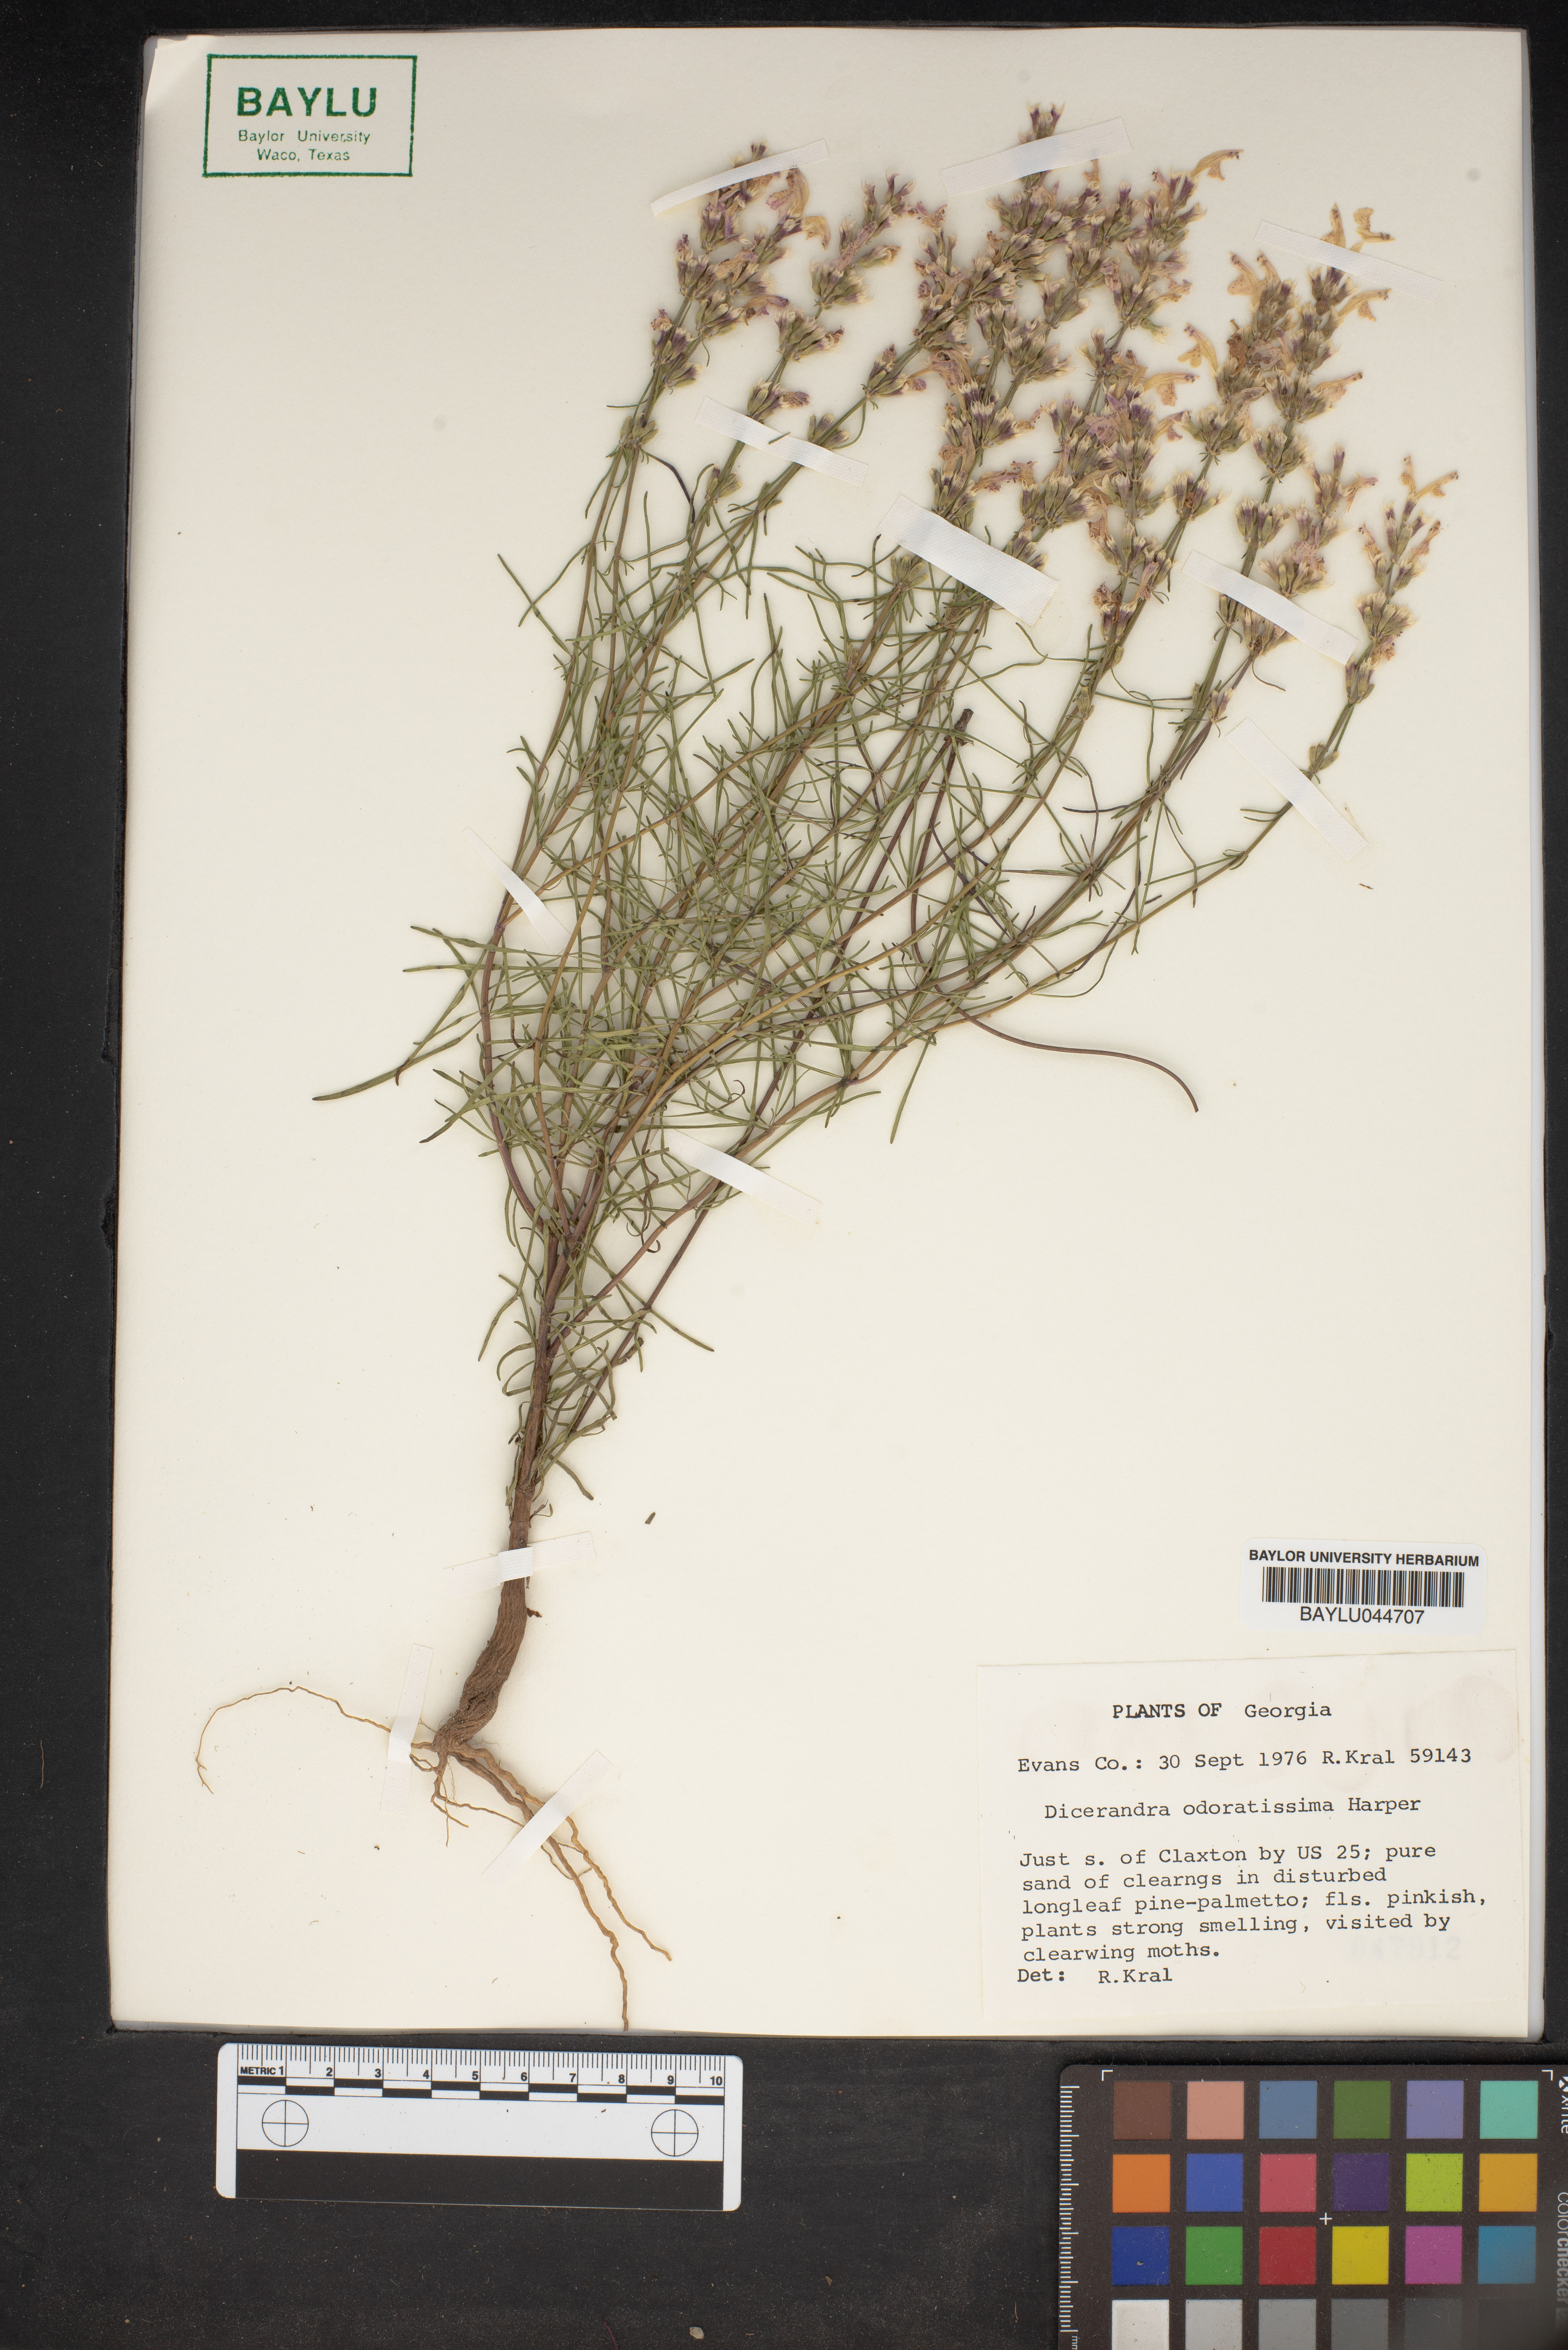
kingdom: Plantae
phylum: Tracheophyta
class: Magnoliopsida
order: Lamiales
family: Lamiaceae
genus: Dicerandra
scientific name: Dicerandra odoratissima
